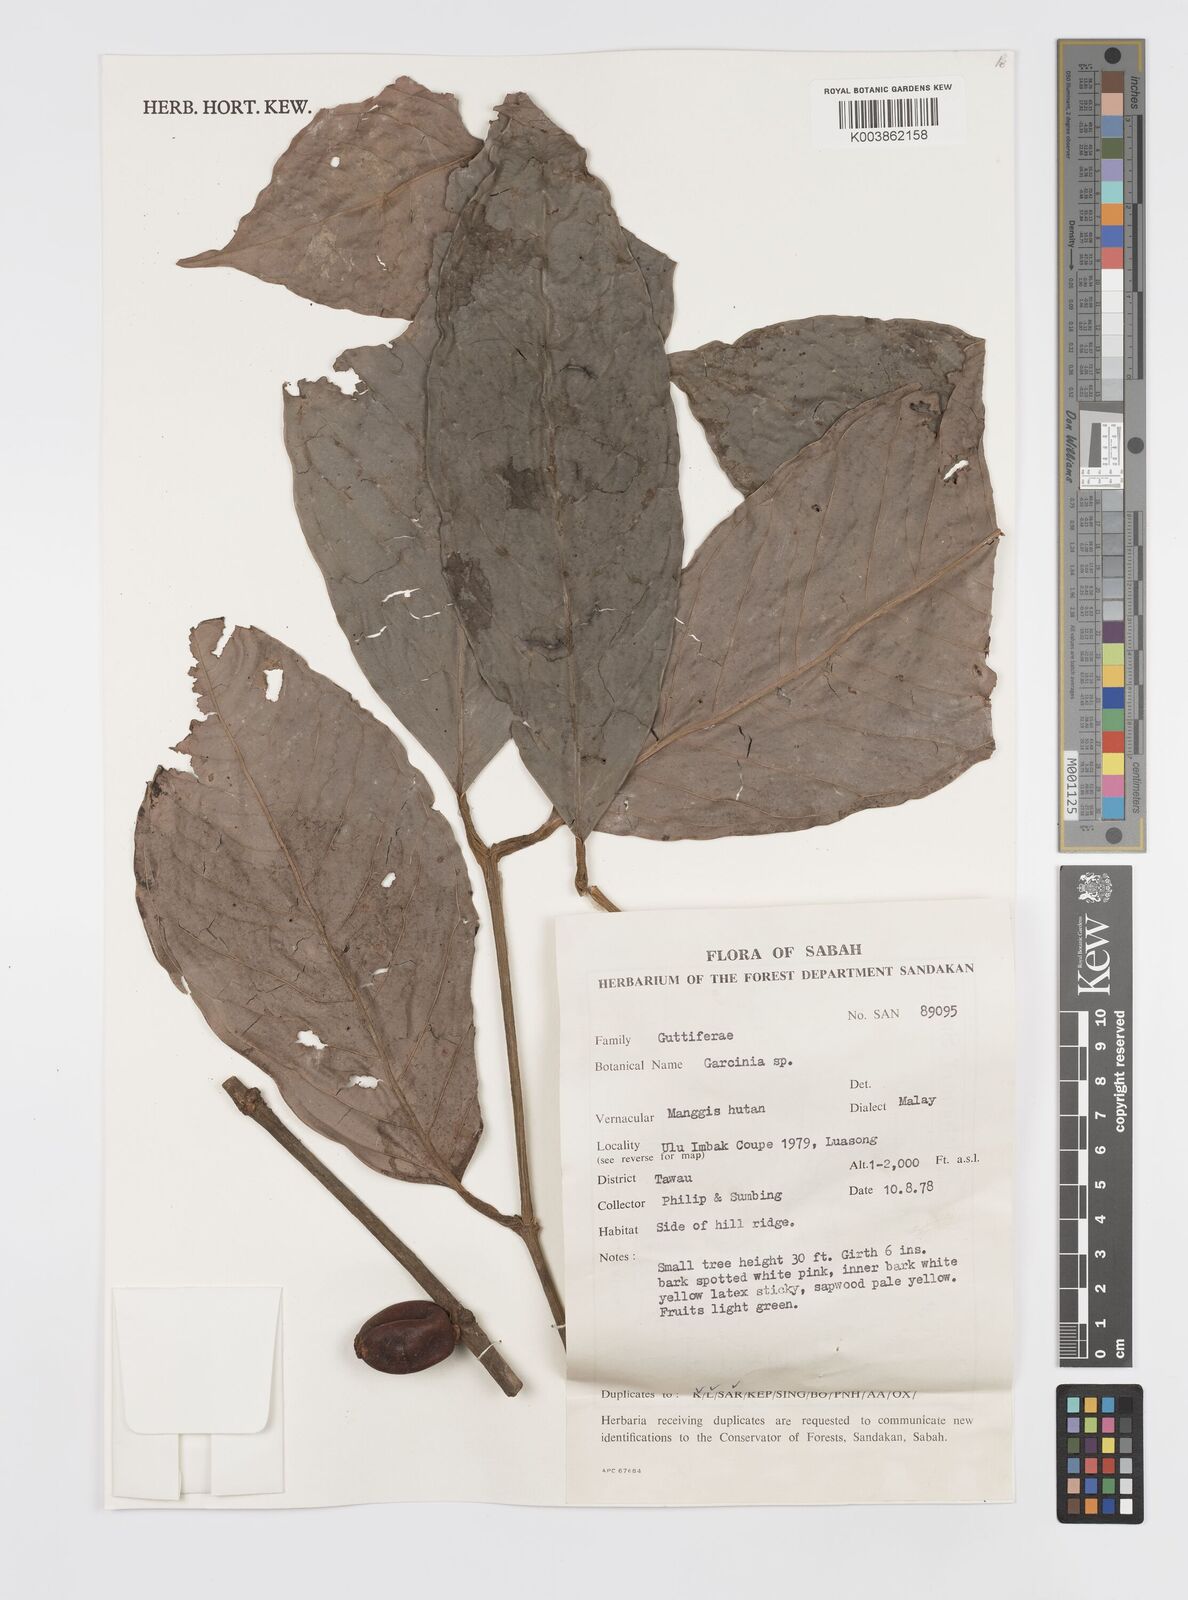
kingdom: Plantae
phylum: Tracheophyta
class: Magnoliopsida
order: Malpighiales
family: Clusiaceae
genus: Garcinia
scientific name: Garcinia
